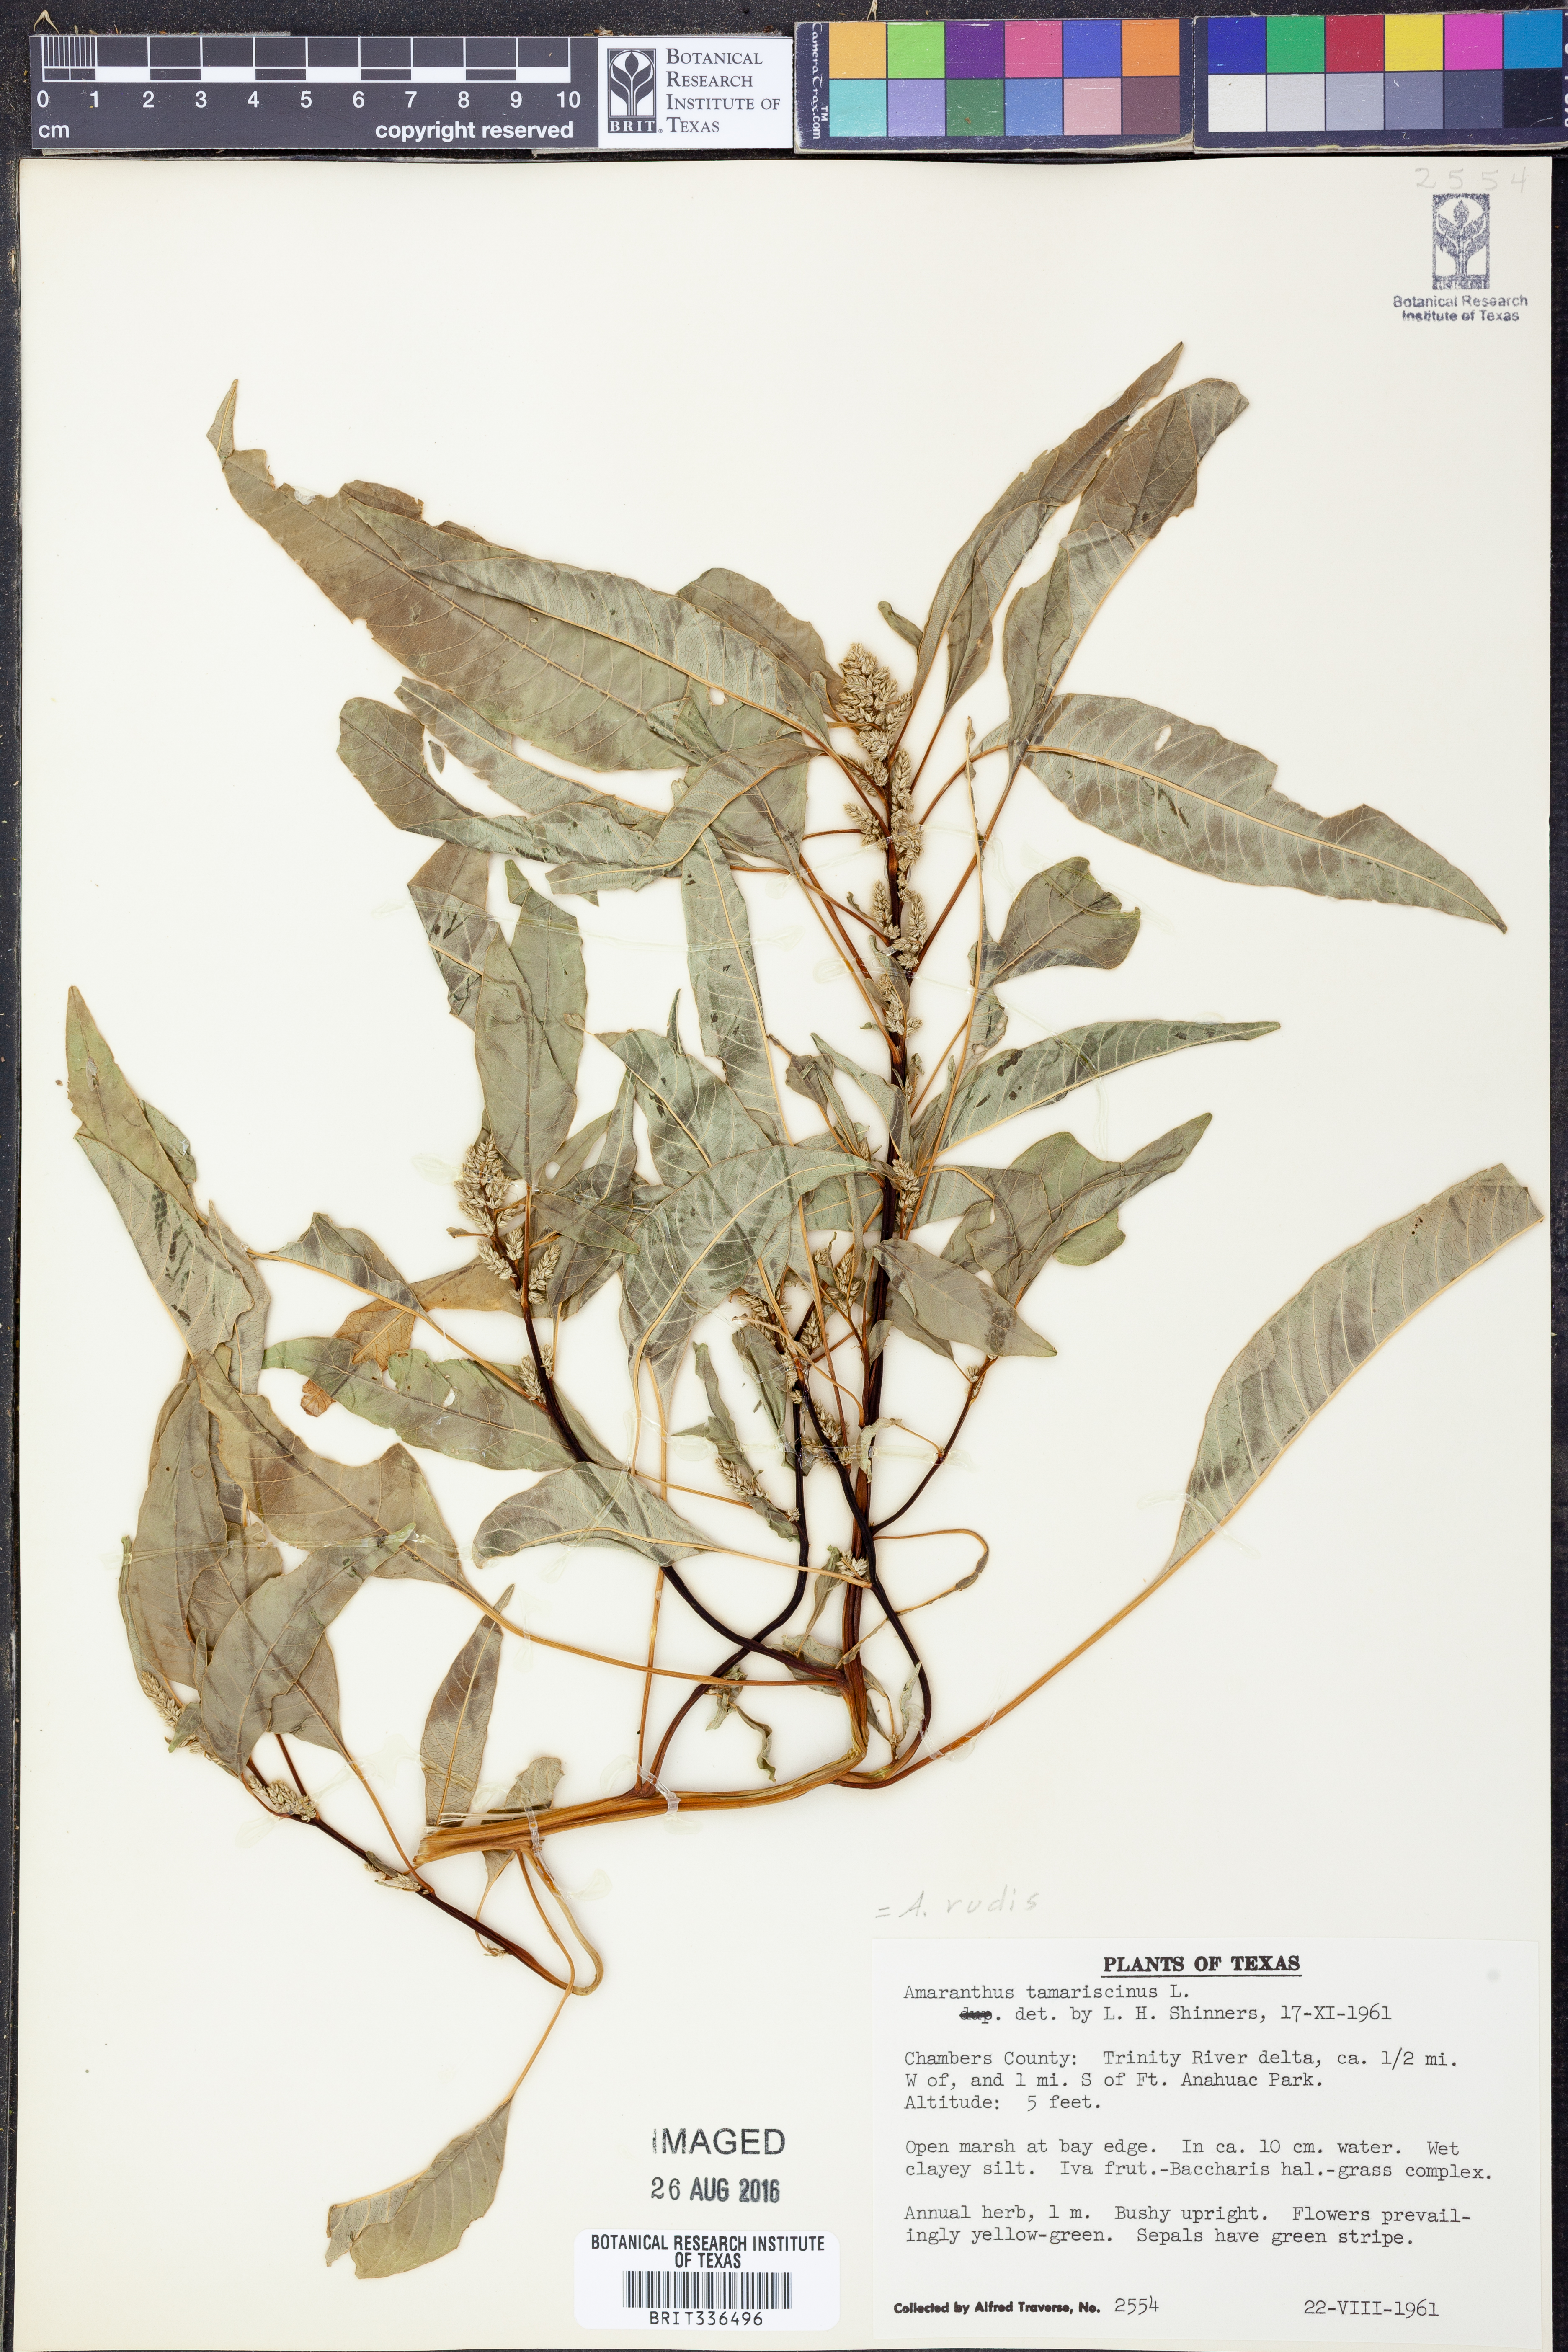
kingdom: Plantae
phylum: Tracheophyta
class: Magnoliopsida
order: Caryophyllales
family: Amaranthaceae
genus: Amaranthus
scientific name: Amaranthus tuberculatus
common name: Rough-fruit amaranth
